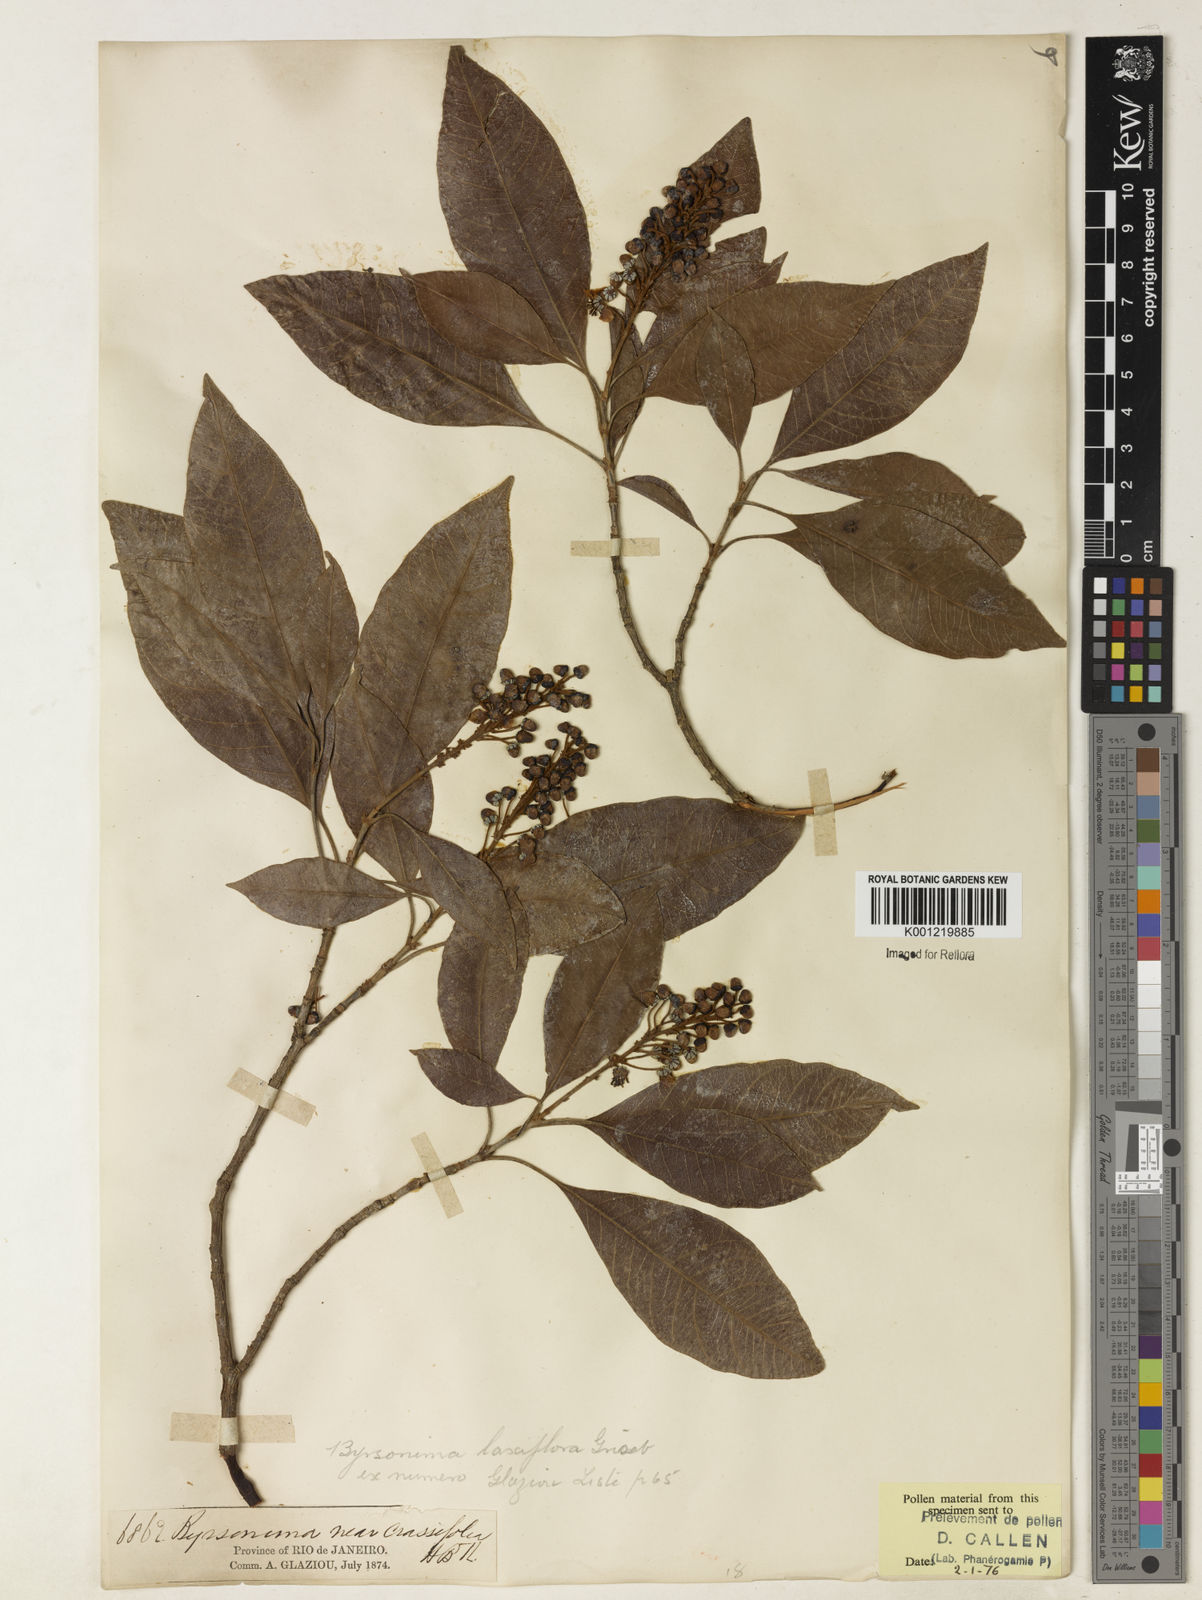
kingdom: Plantae
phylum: Tracheophyta
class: Magnoliopsida
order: Malpighiales
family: Malpighiaceae
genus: Byrsonima
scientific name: Byrsonima laxiflora
